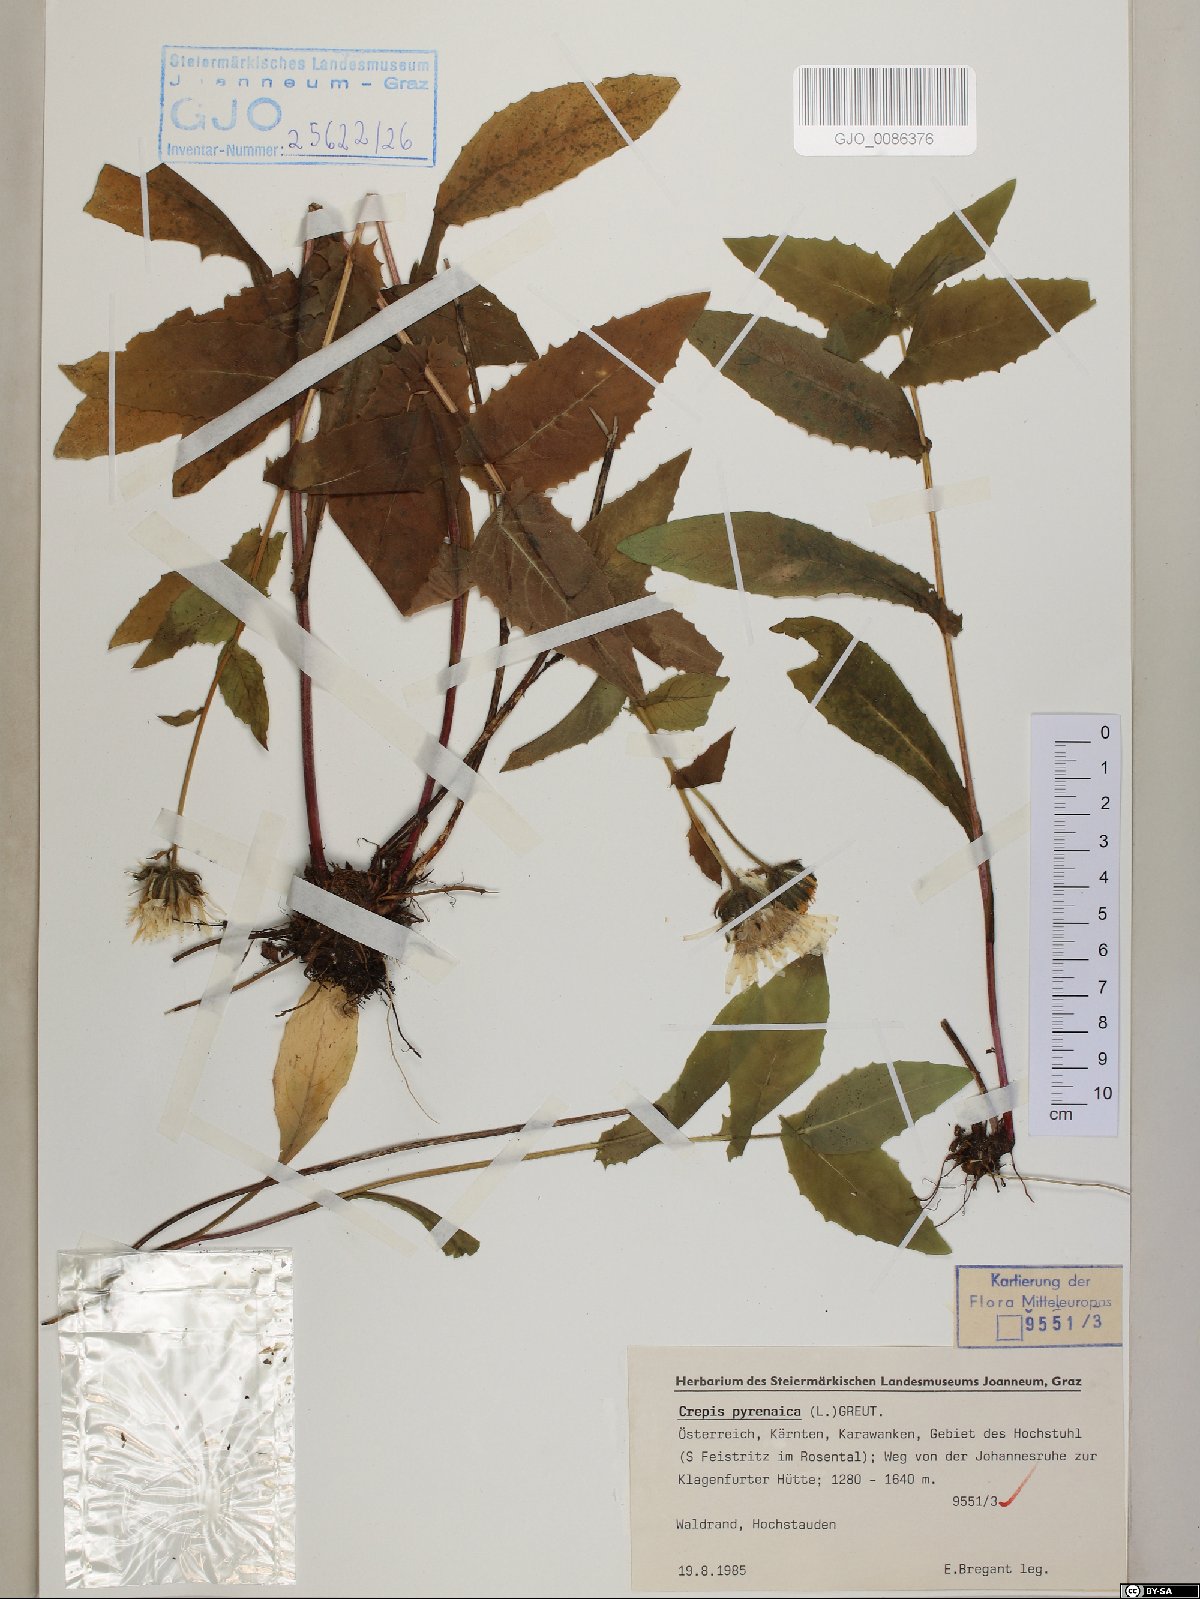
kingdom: Plantae
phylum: Tracheophyta
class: Magnoliopsida
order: Asterales
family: Asteraceae
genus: Crepis
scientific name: Crepis pyrenaica
